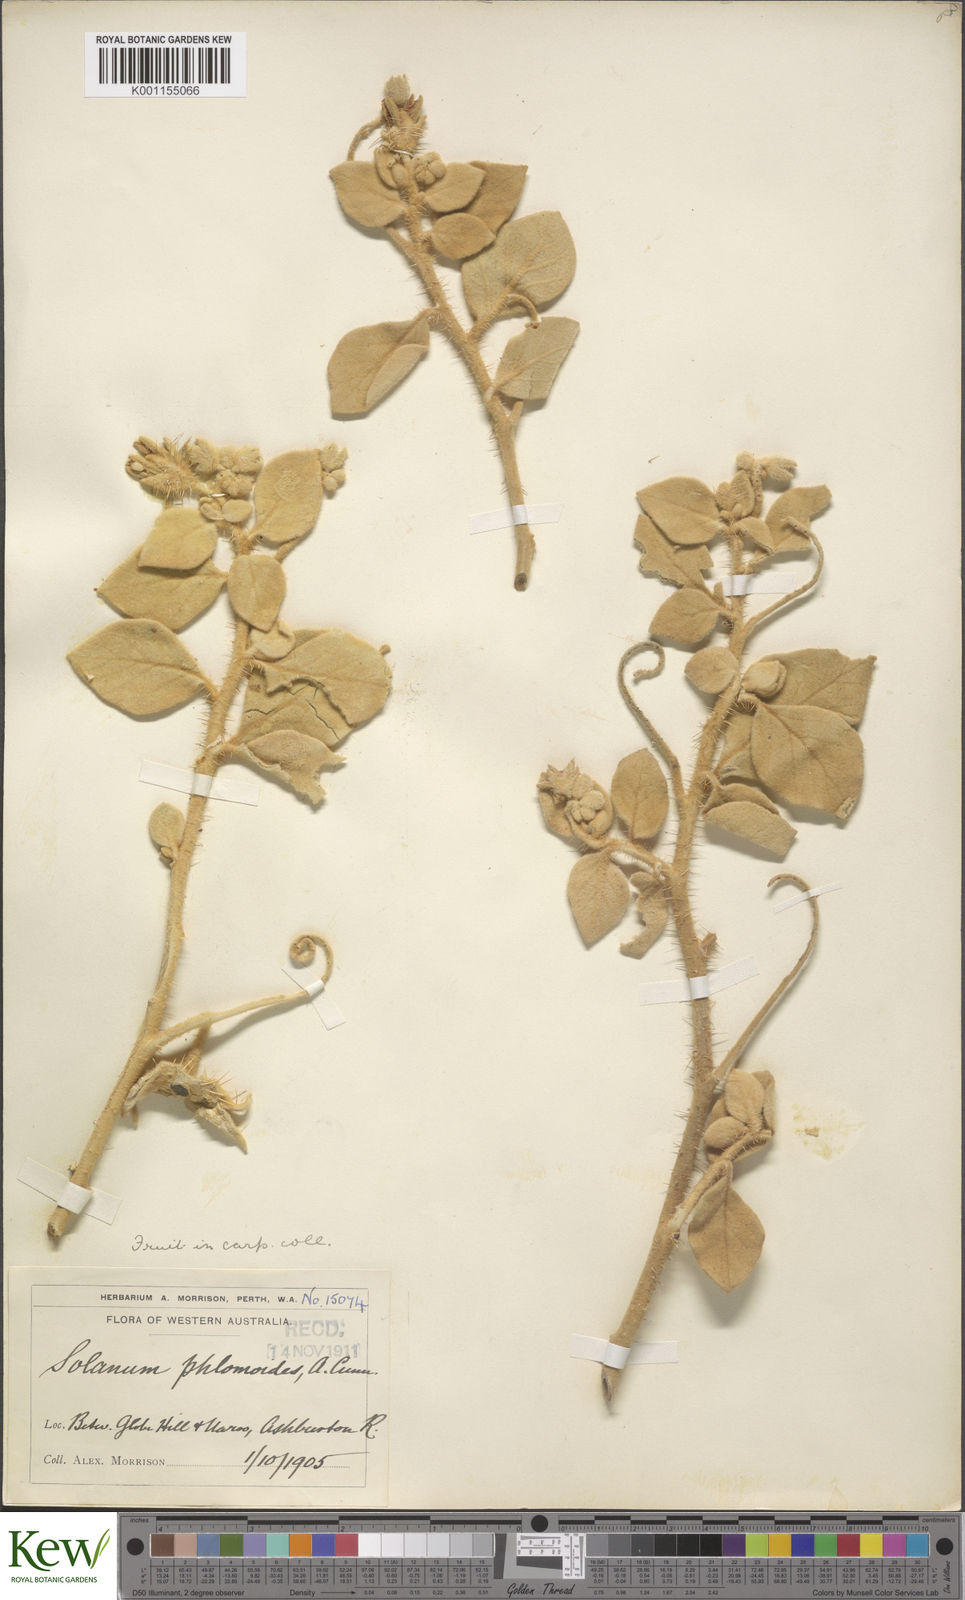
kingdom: Plantae
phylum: Tracheophyta
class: Magnoliopsida
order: Solanales
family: Solanaceae
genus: Solanum
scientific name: Solanum phlomoides
